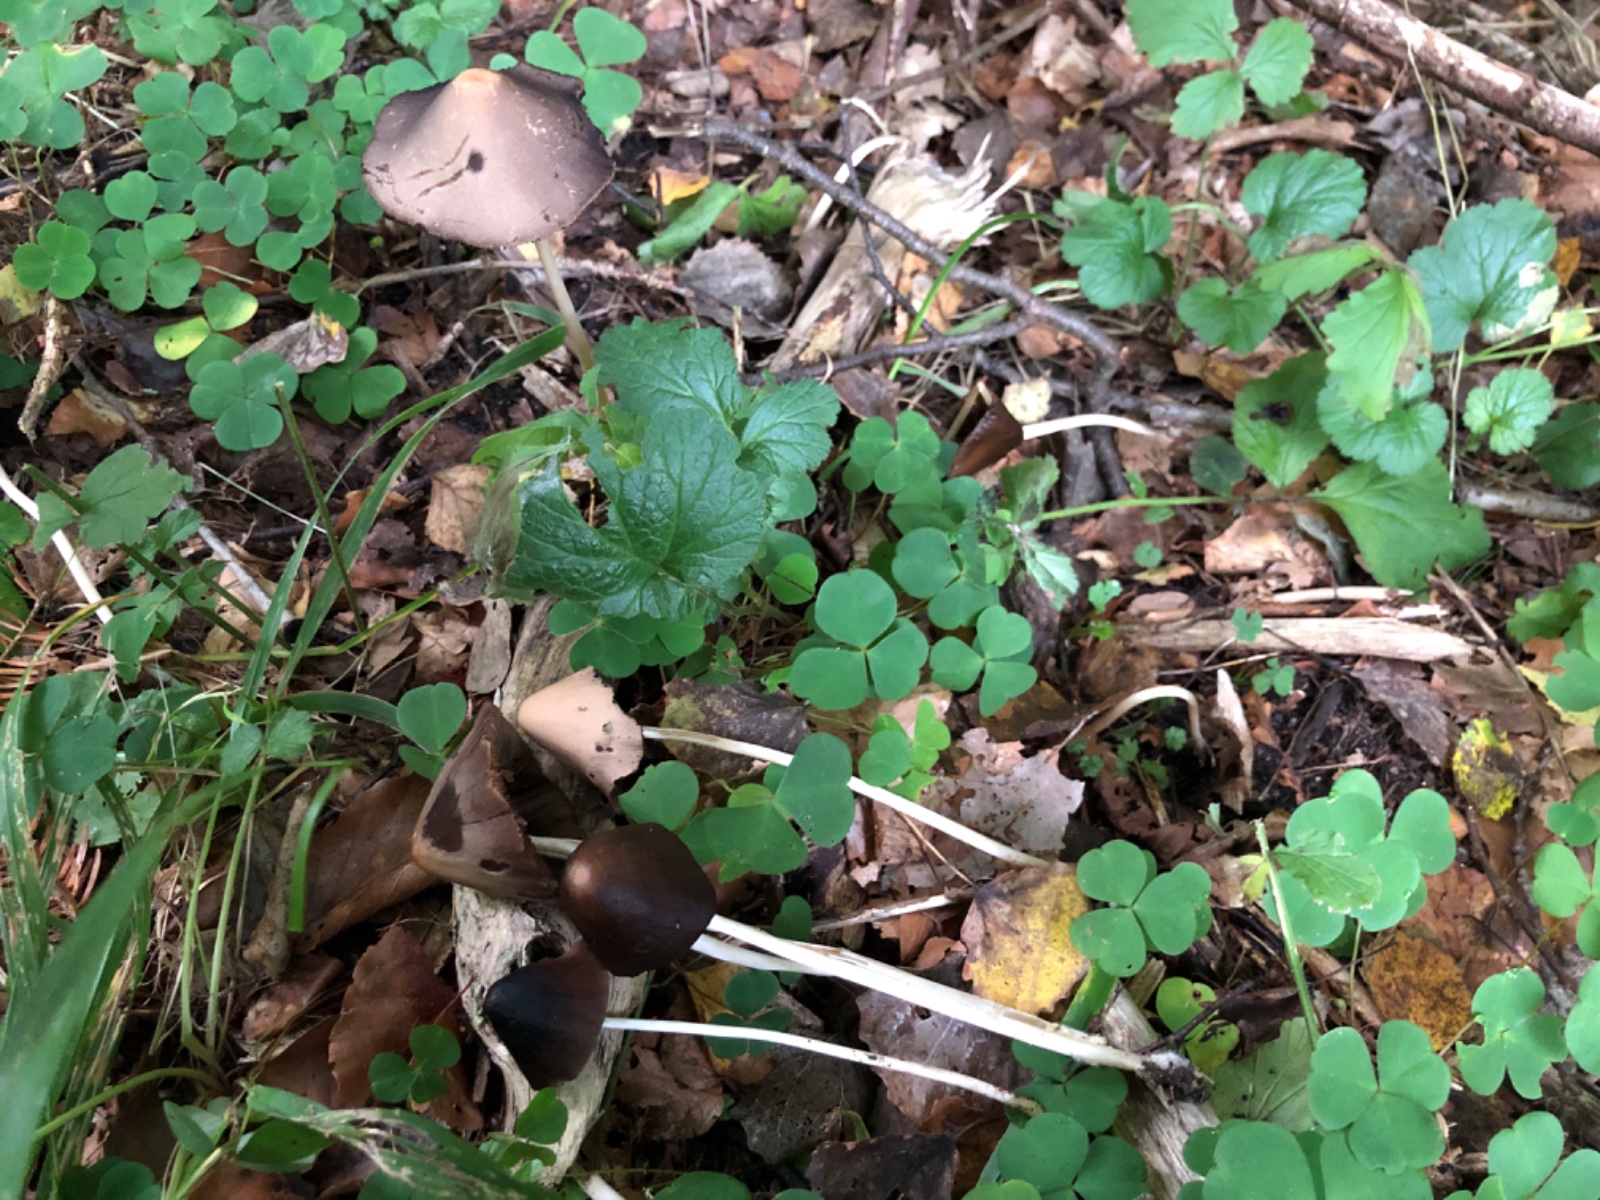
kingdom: Fungi
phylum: Basidiomycota
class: Agaricomycetes
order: Agaricales
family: Psathyrellaceae
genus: Parasola
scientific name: Parasola conopilea
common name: kegle-hjulhat
